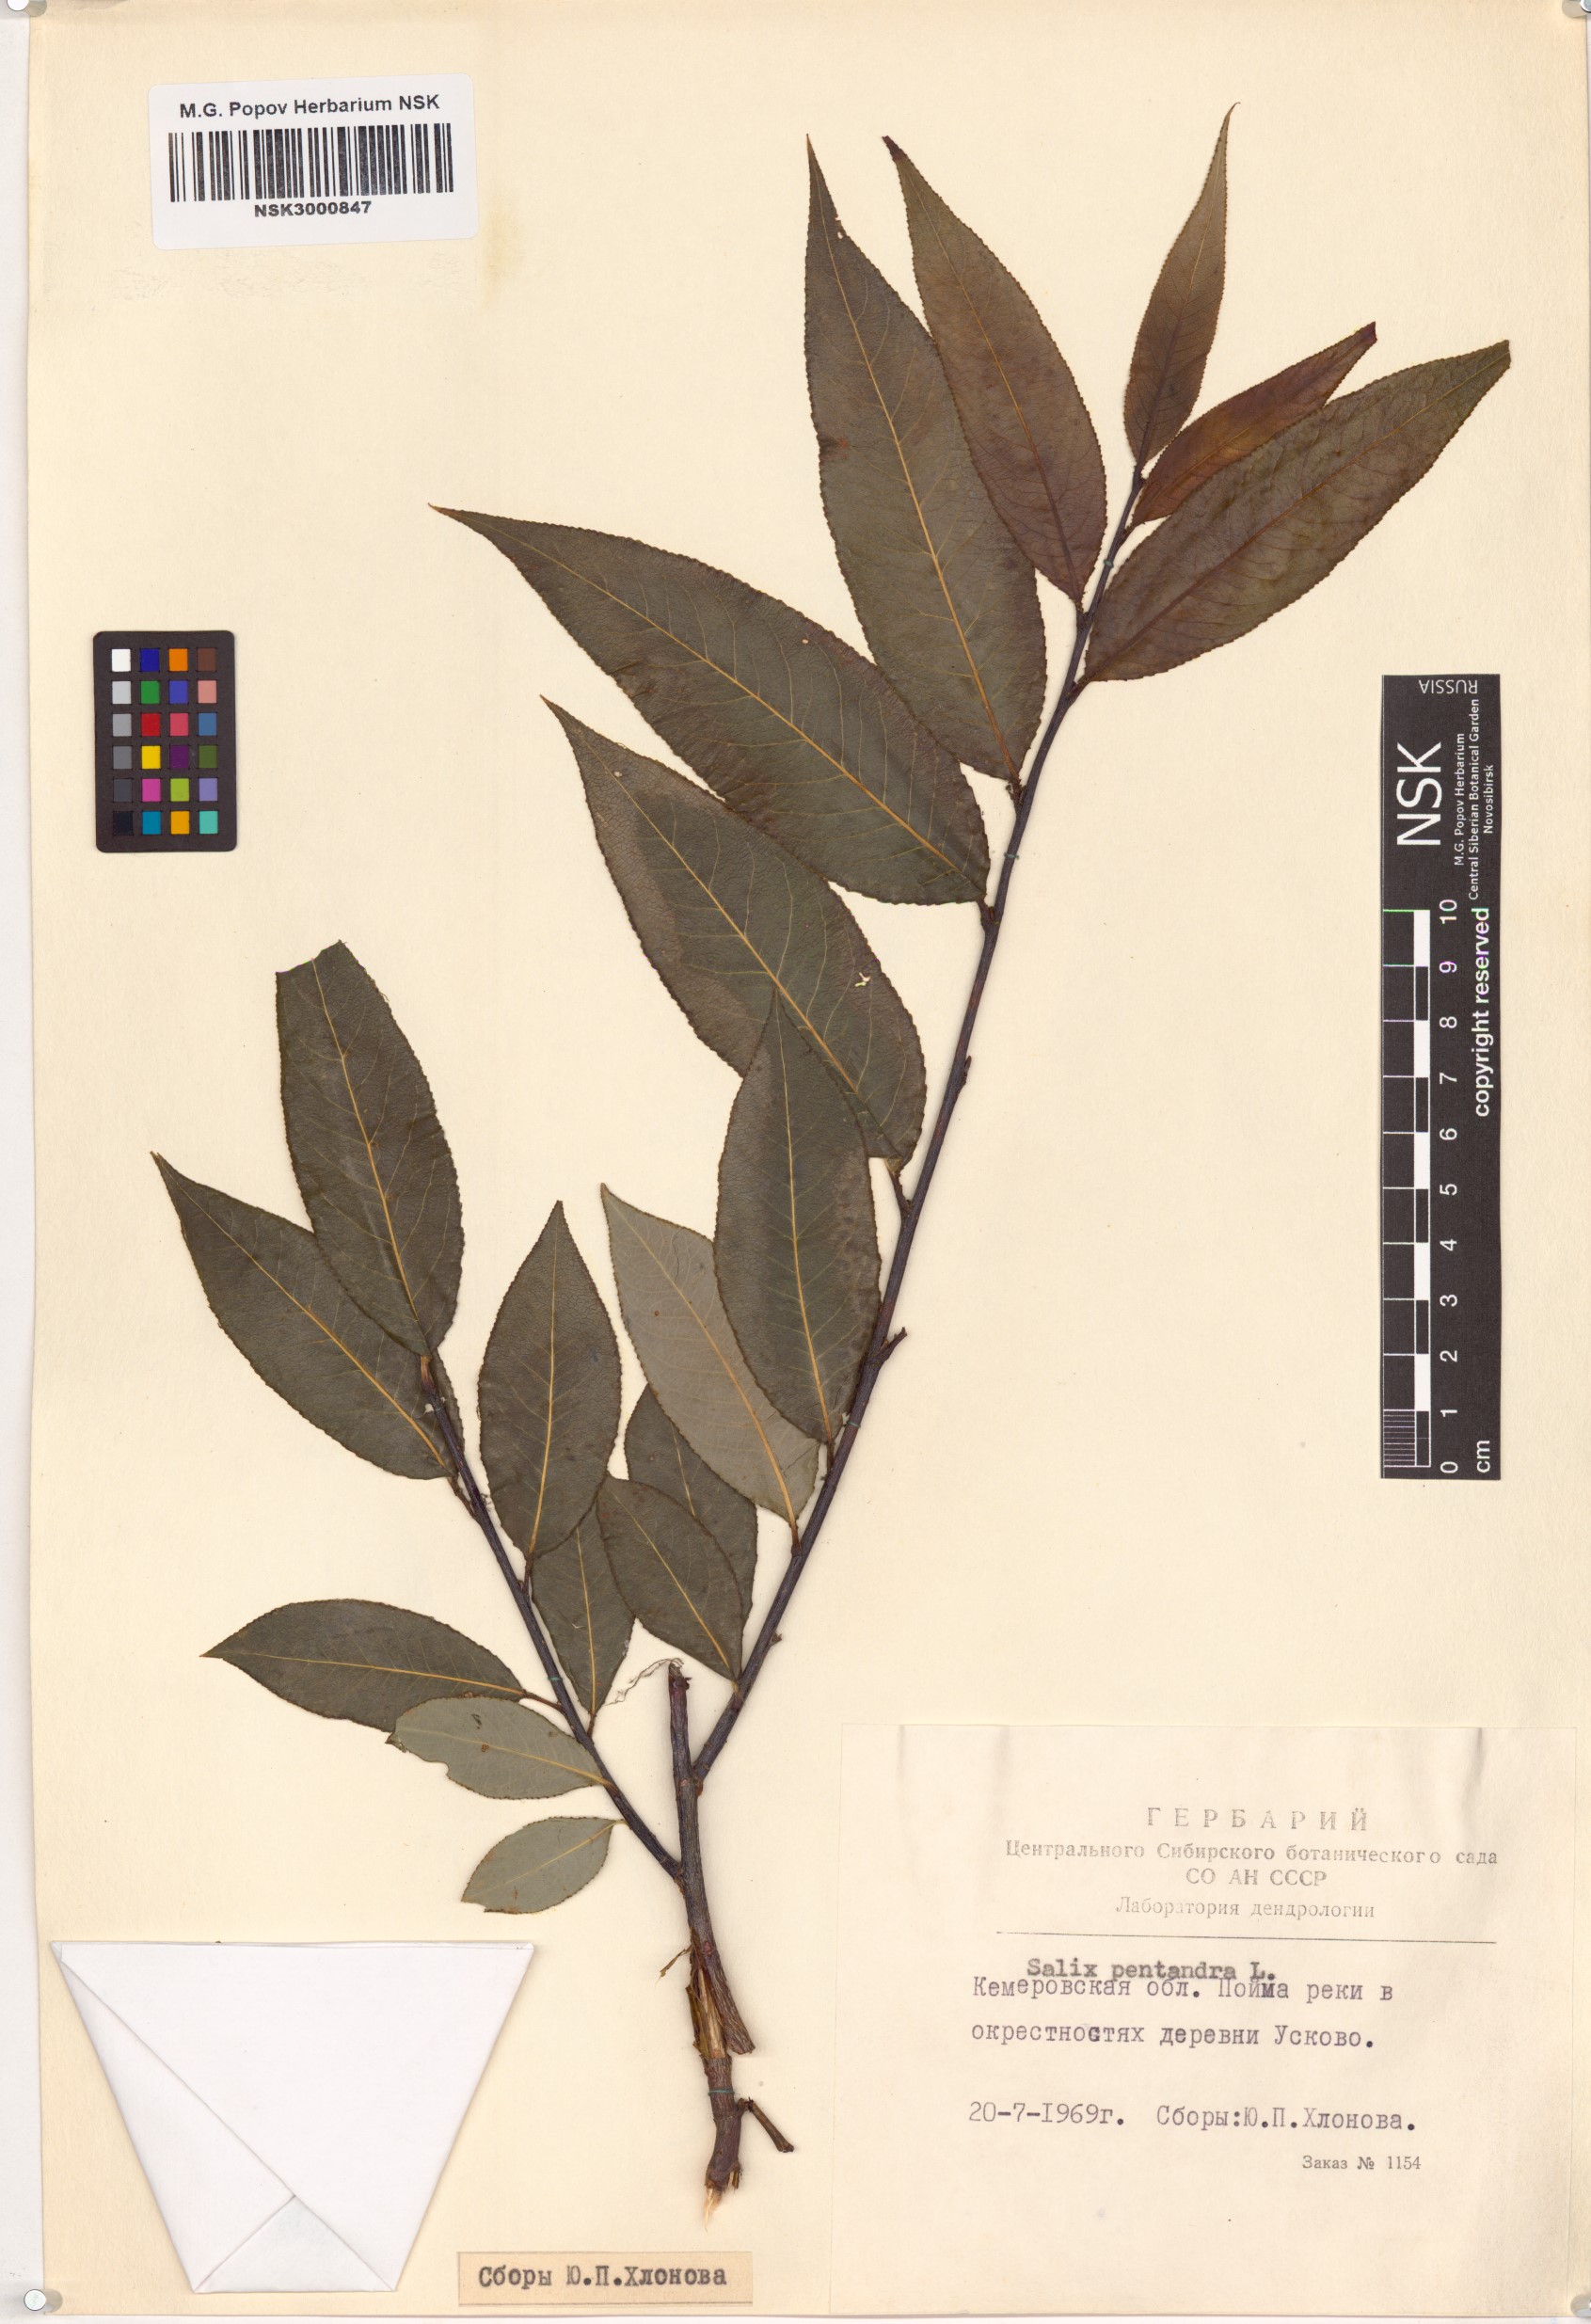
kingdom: Plantae
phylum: Tracheophyta
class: Magnoliopsida
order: Malpighiales
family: Salicaceae
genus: Salix
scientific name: Salix pentandra
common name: Bay willow
